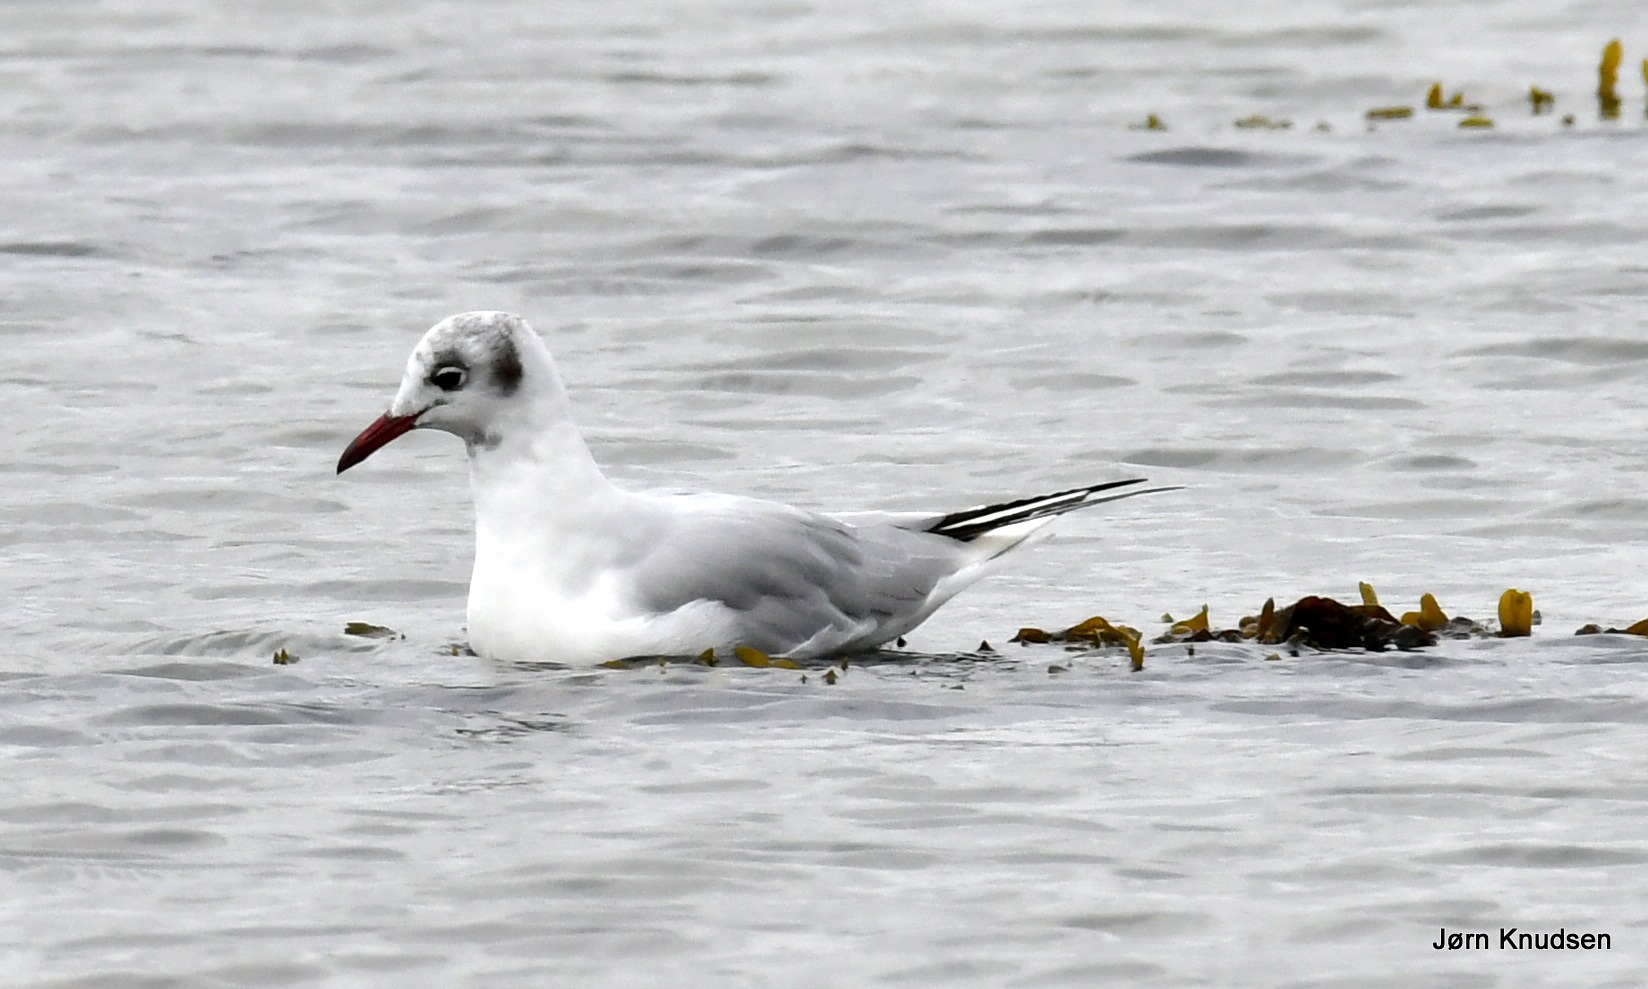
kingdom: Animalia
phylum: Chordata
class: Aves
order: Charadriiformes
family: Laridae
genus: Chroicocephalus
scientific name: Chroicocephalus ridibundus
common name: Hættemåge
